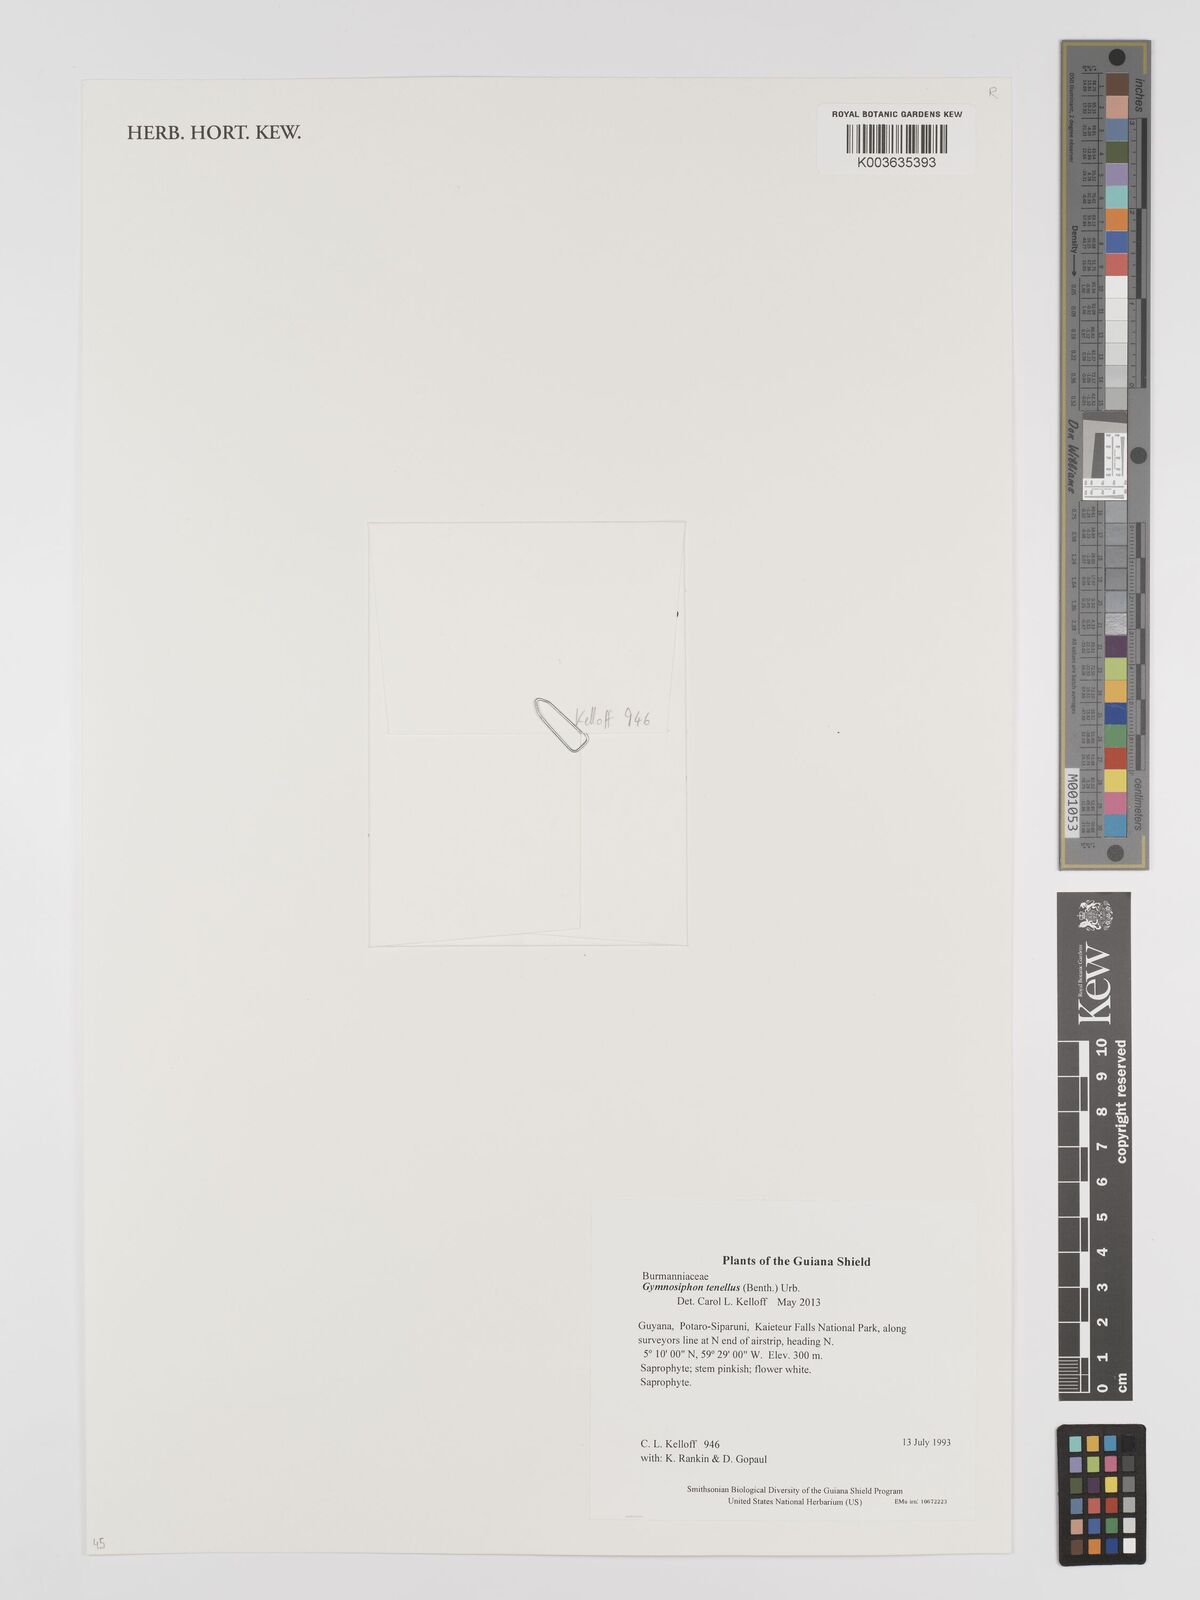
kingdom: Plantae
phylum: Tracheophyta
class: Liliopsida
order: Dioscoreales
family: Burmanniaceae
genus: Gymnosiphon
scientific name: Gymnosiphon tenellus
